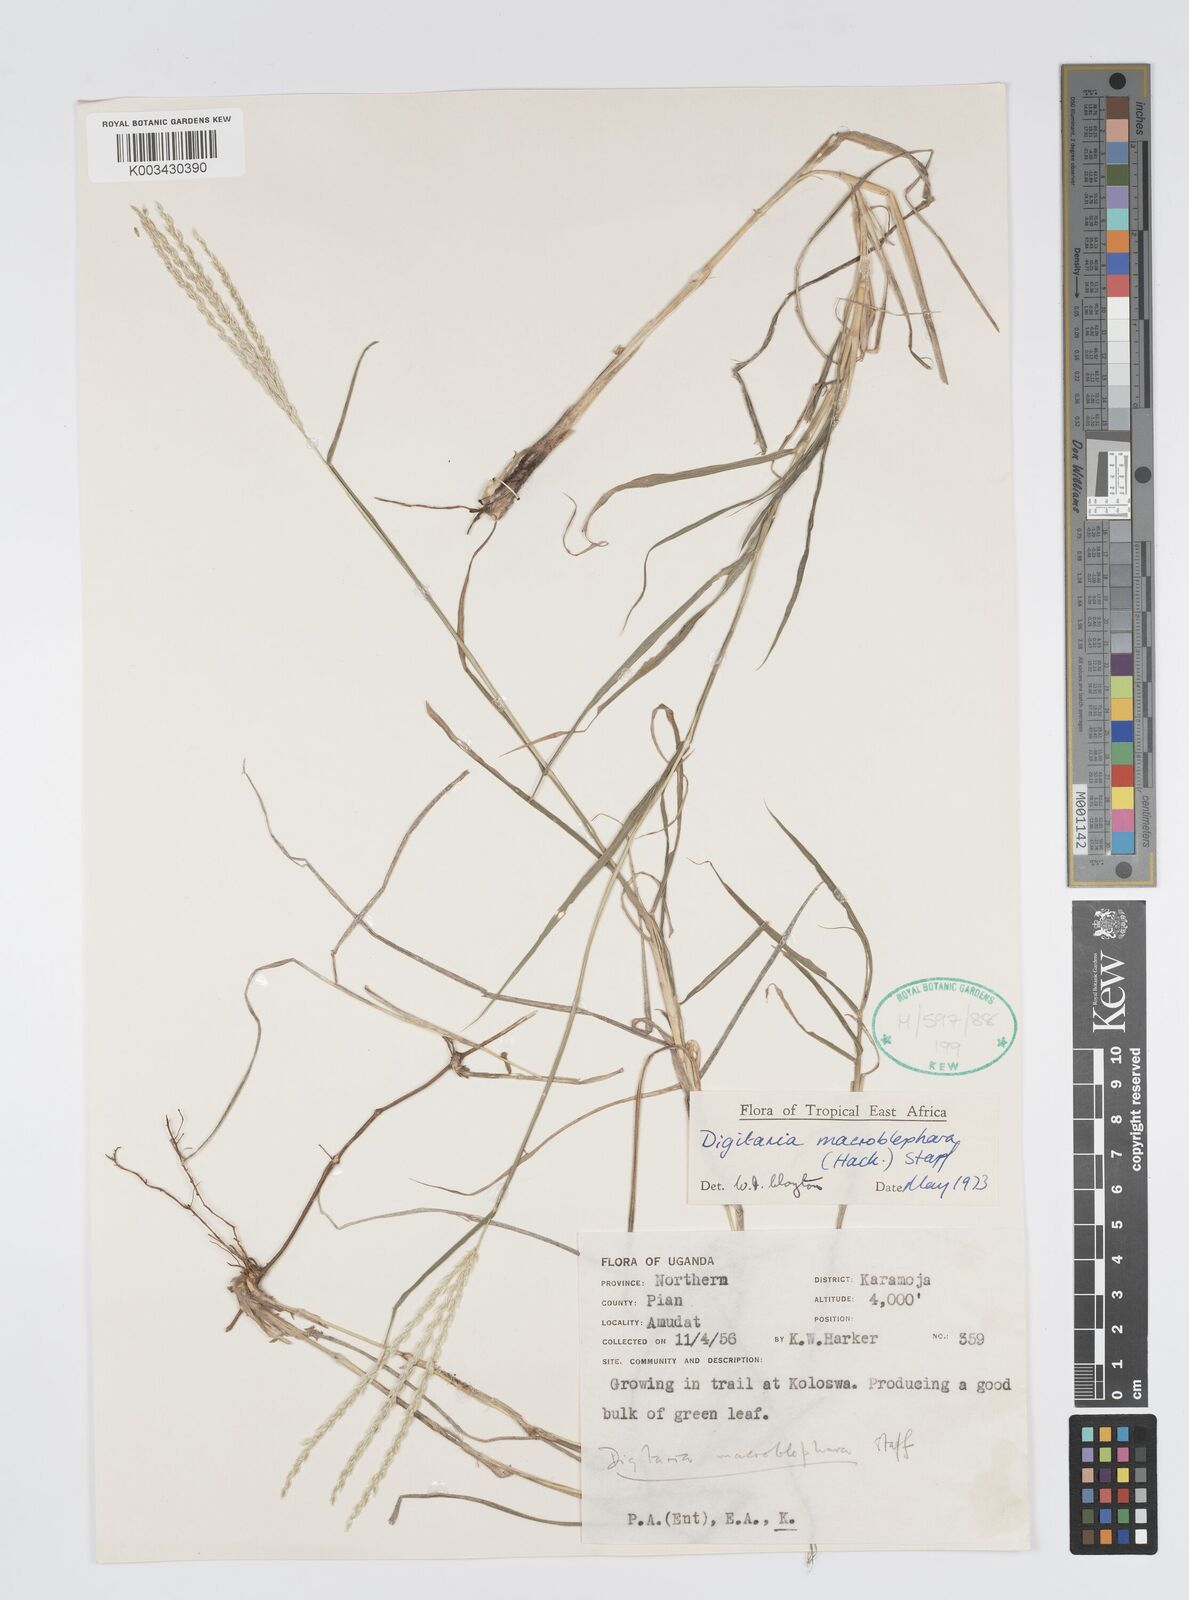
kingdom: Plantae
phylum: Tracheophyta
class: Liliopsida
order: Poales
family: Poaceae
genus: Digitaria
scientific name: Digitaria macroblephara
